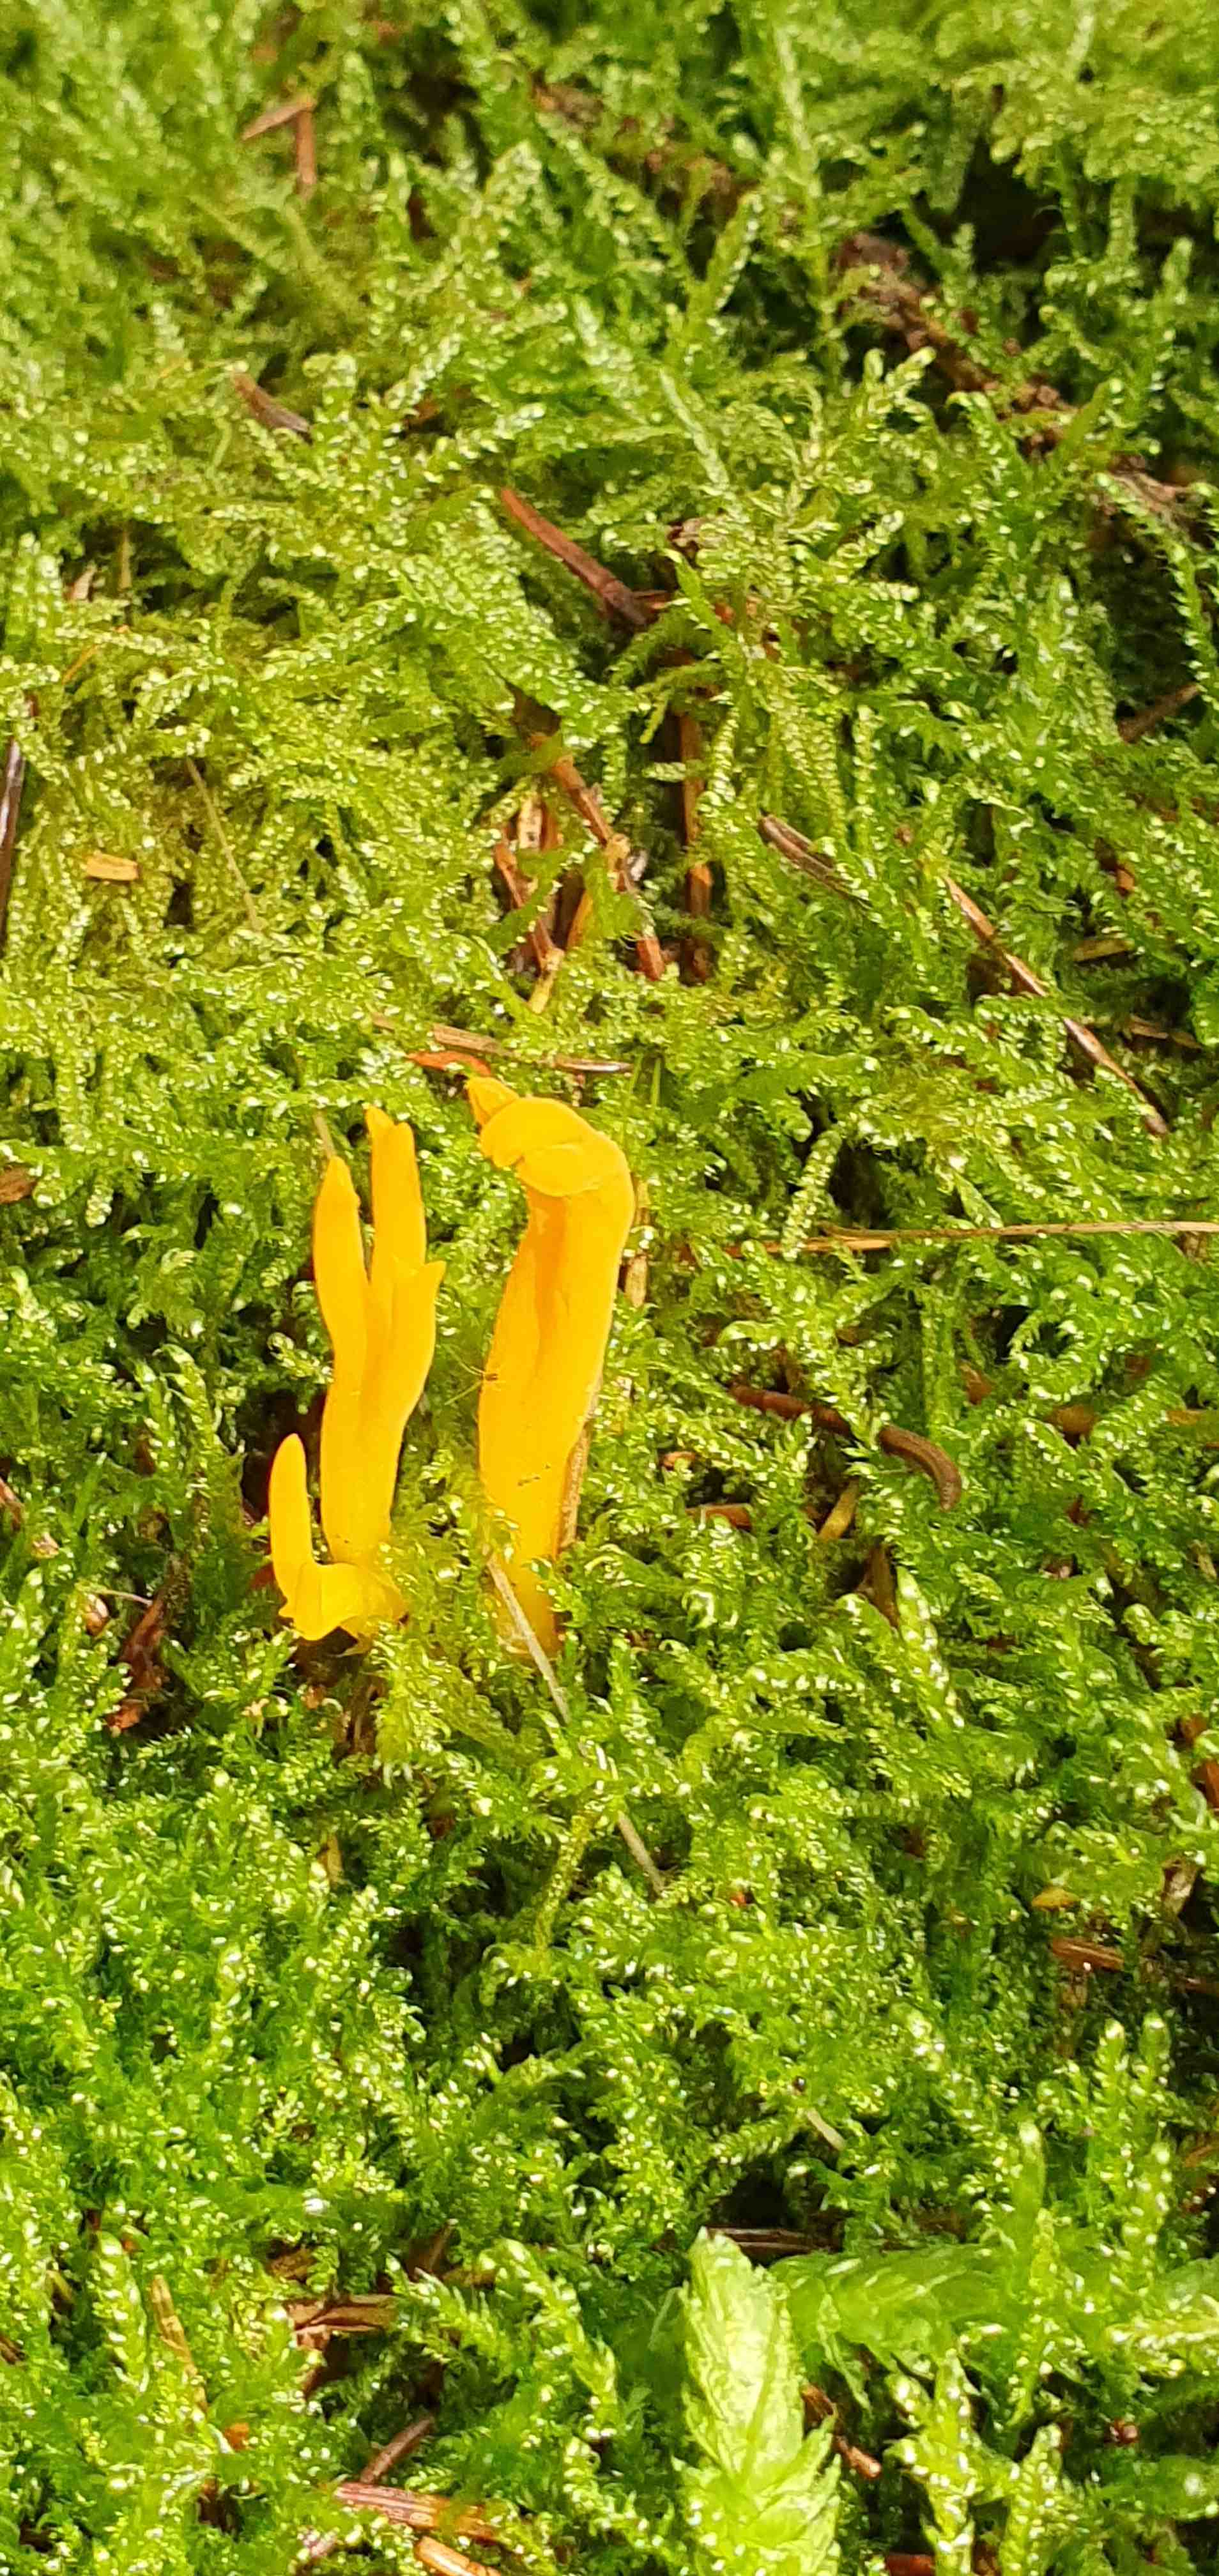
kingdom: Fungi
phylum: Basidiomycota
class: Dacrymycetes
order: Dacrymycetales
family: Dacrymycetaceae
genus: Calocera
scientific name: Calocera viscosa
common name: almindelig guldgaffel
